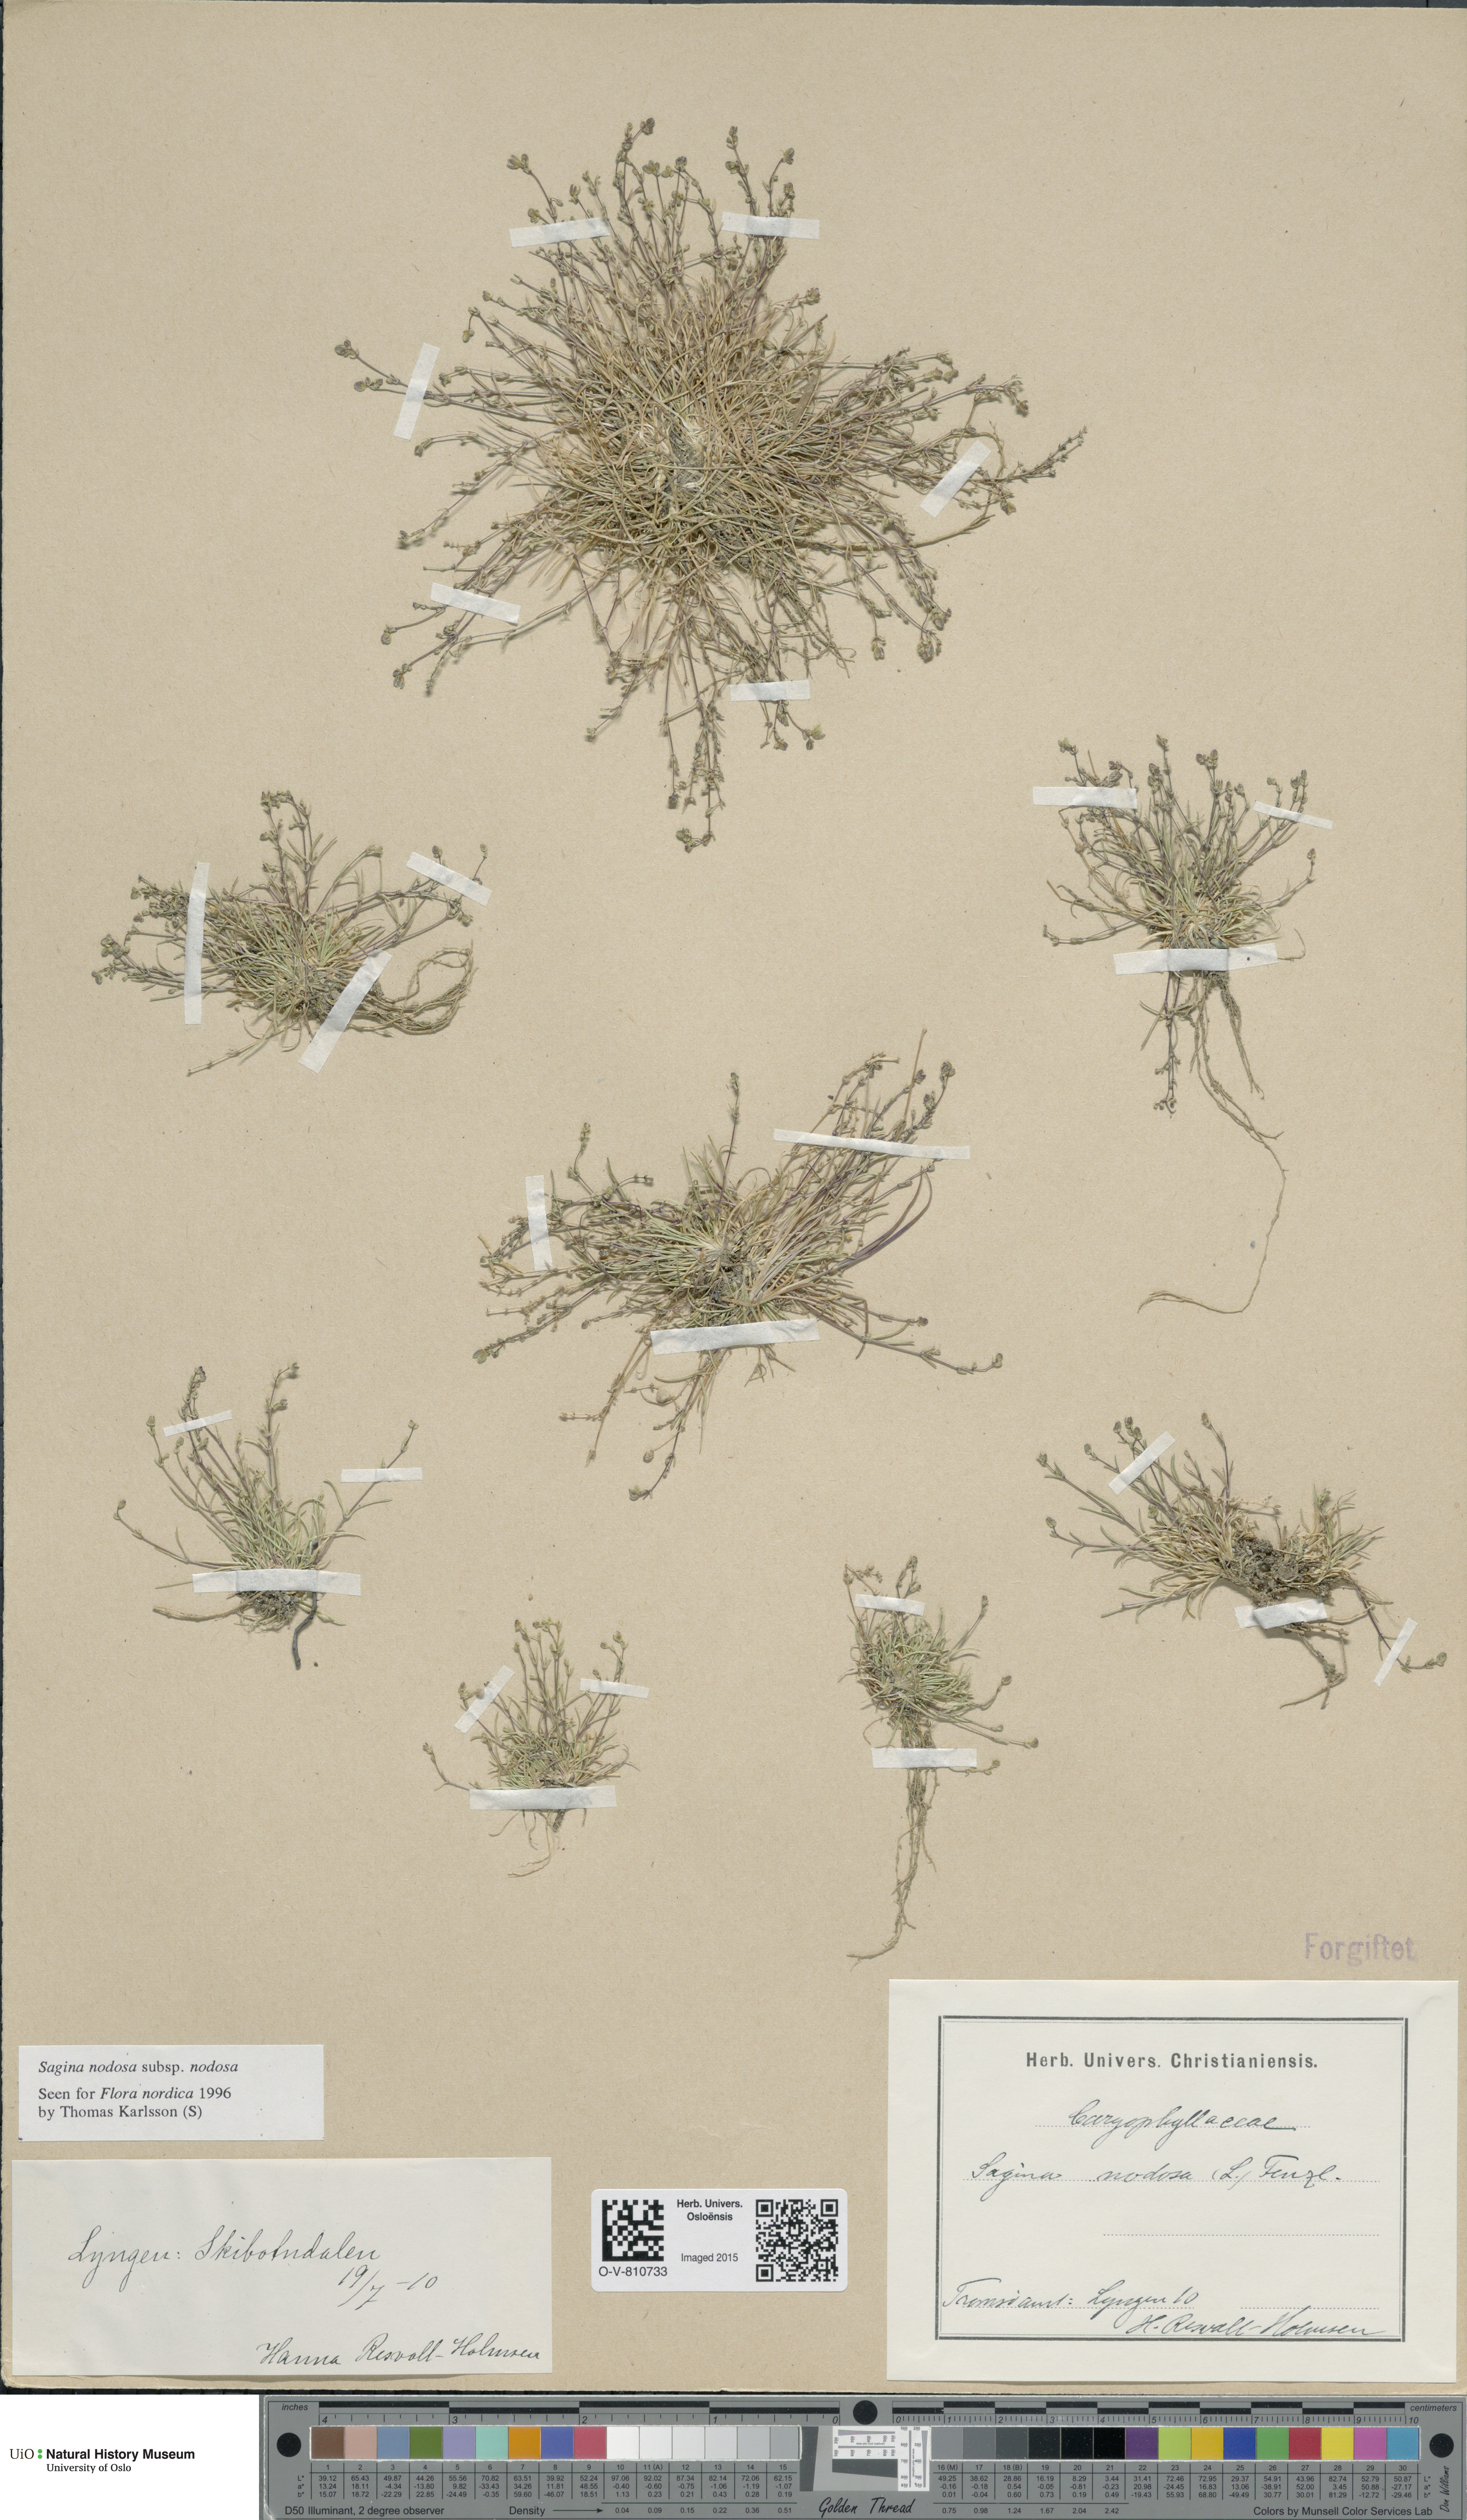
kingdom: Plantae
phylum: Tracheophyta
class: Magnoliopsida
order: Caryophyllales
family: Caryophyllaceae
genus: Sagina
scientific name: Sagina nodosa
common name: Knotted pearlwort
